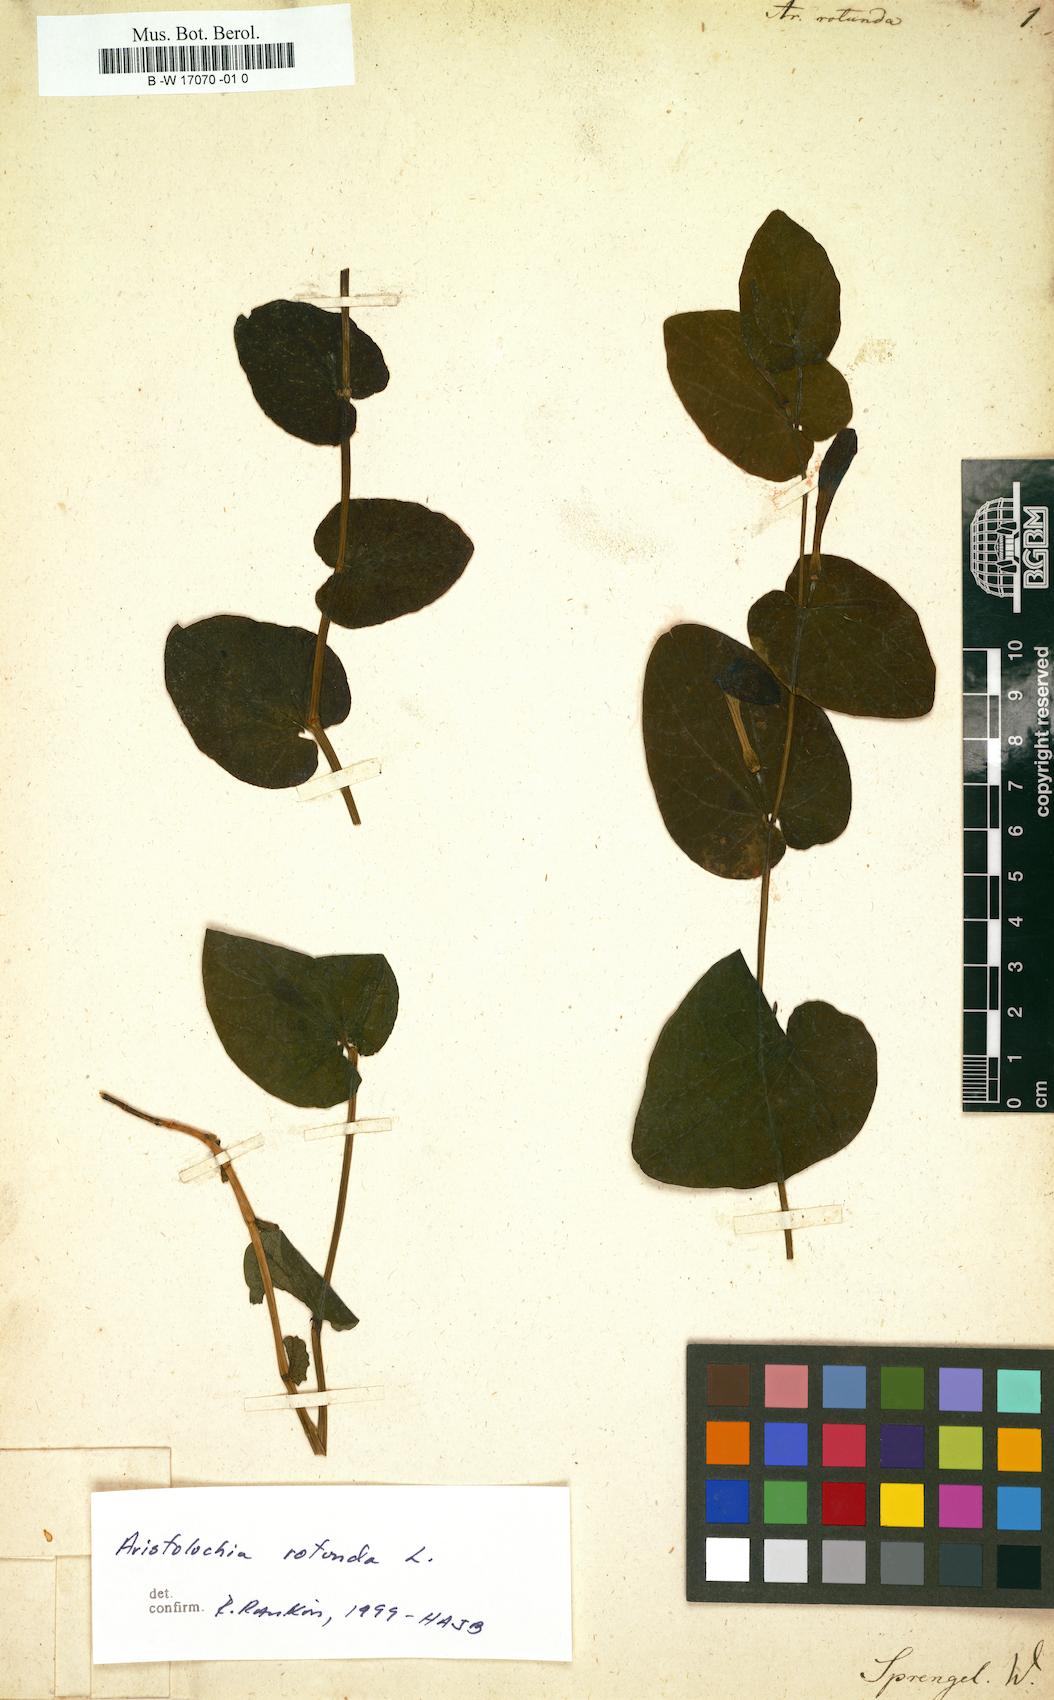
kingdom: Plantae
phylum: Tracheophyta
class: Magnoliopsida
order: Piperales
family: Aristolochiaceae
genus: Aristolochia
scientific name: Aristolochia rotunda
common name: Smearwort
